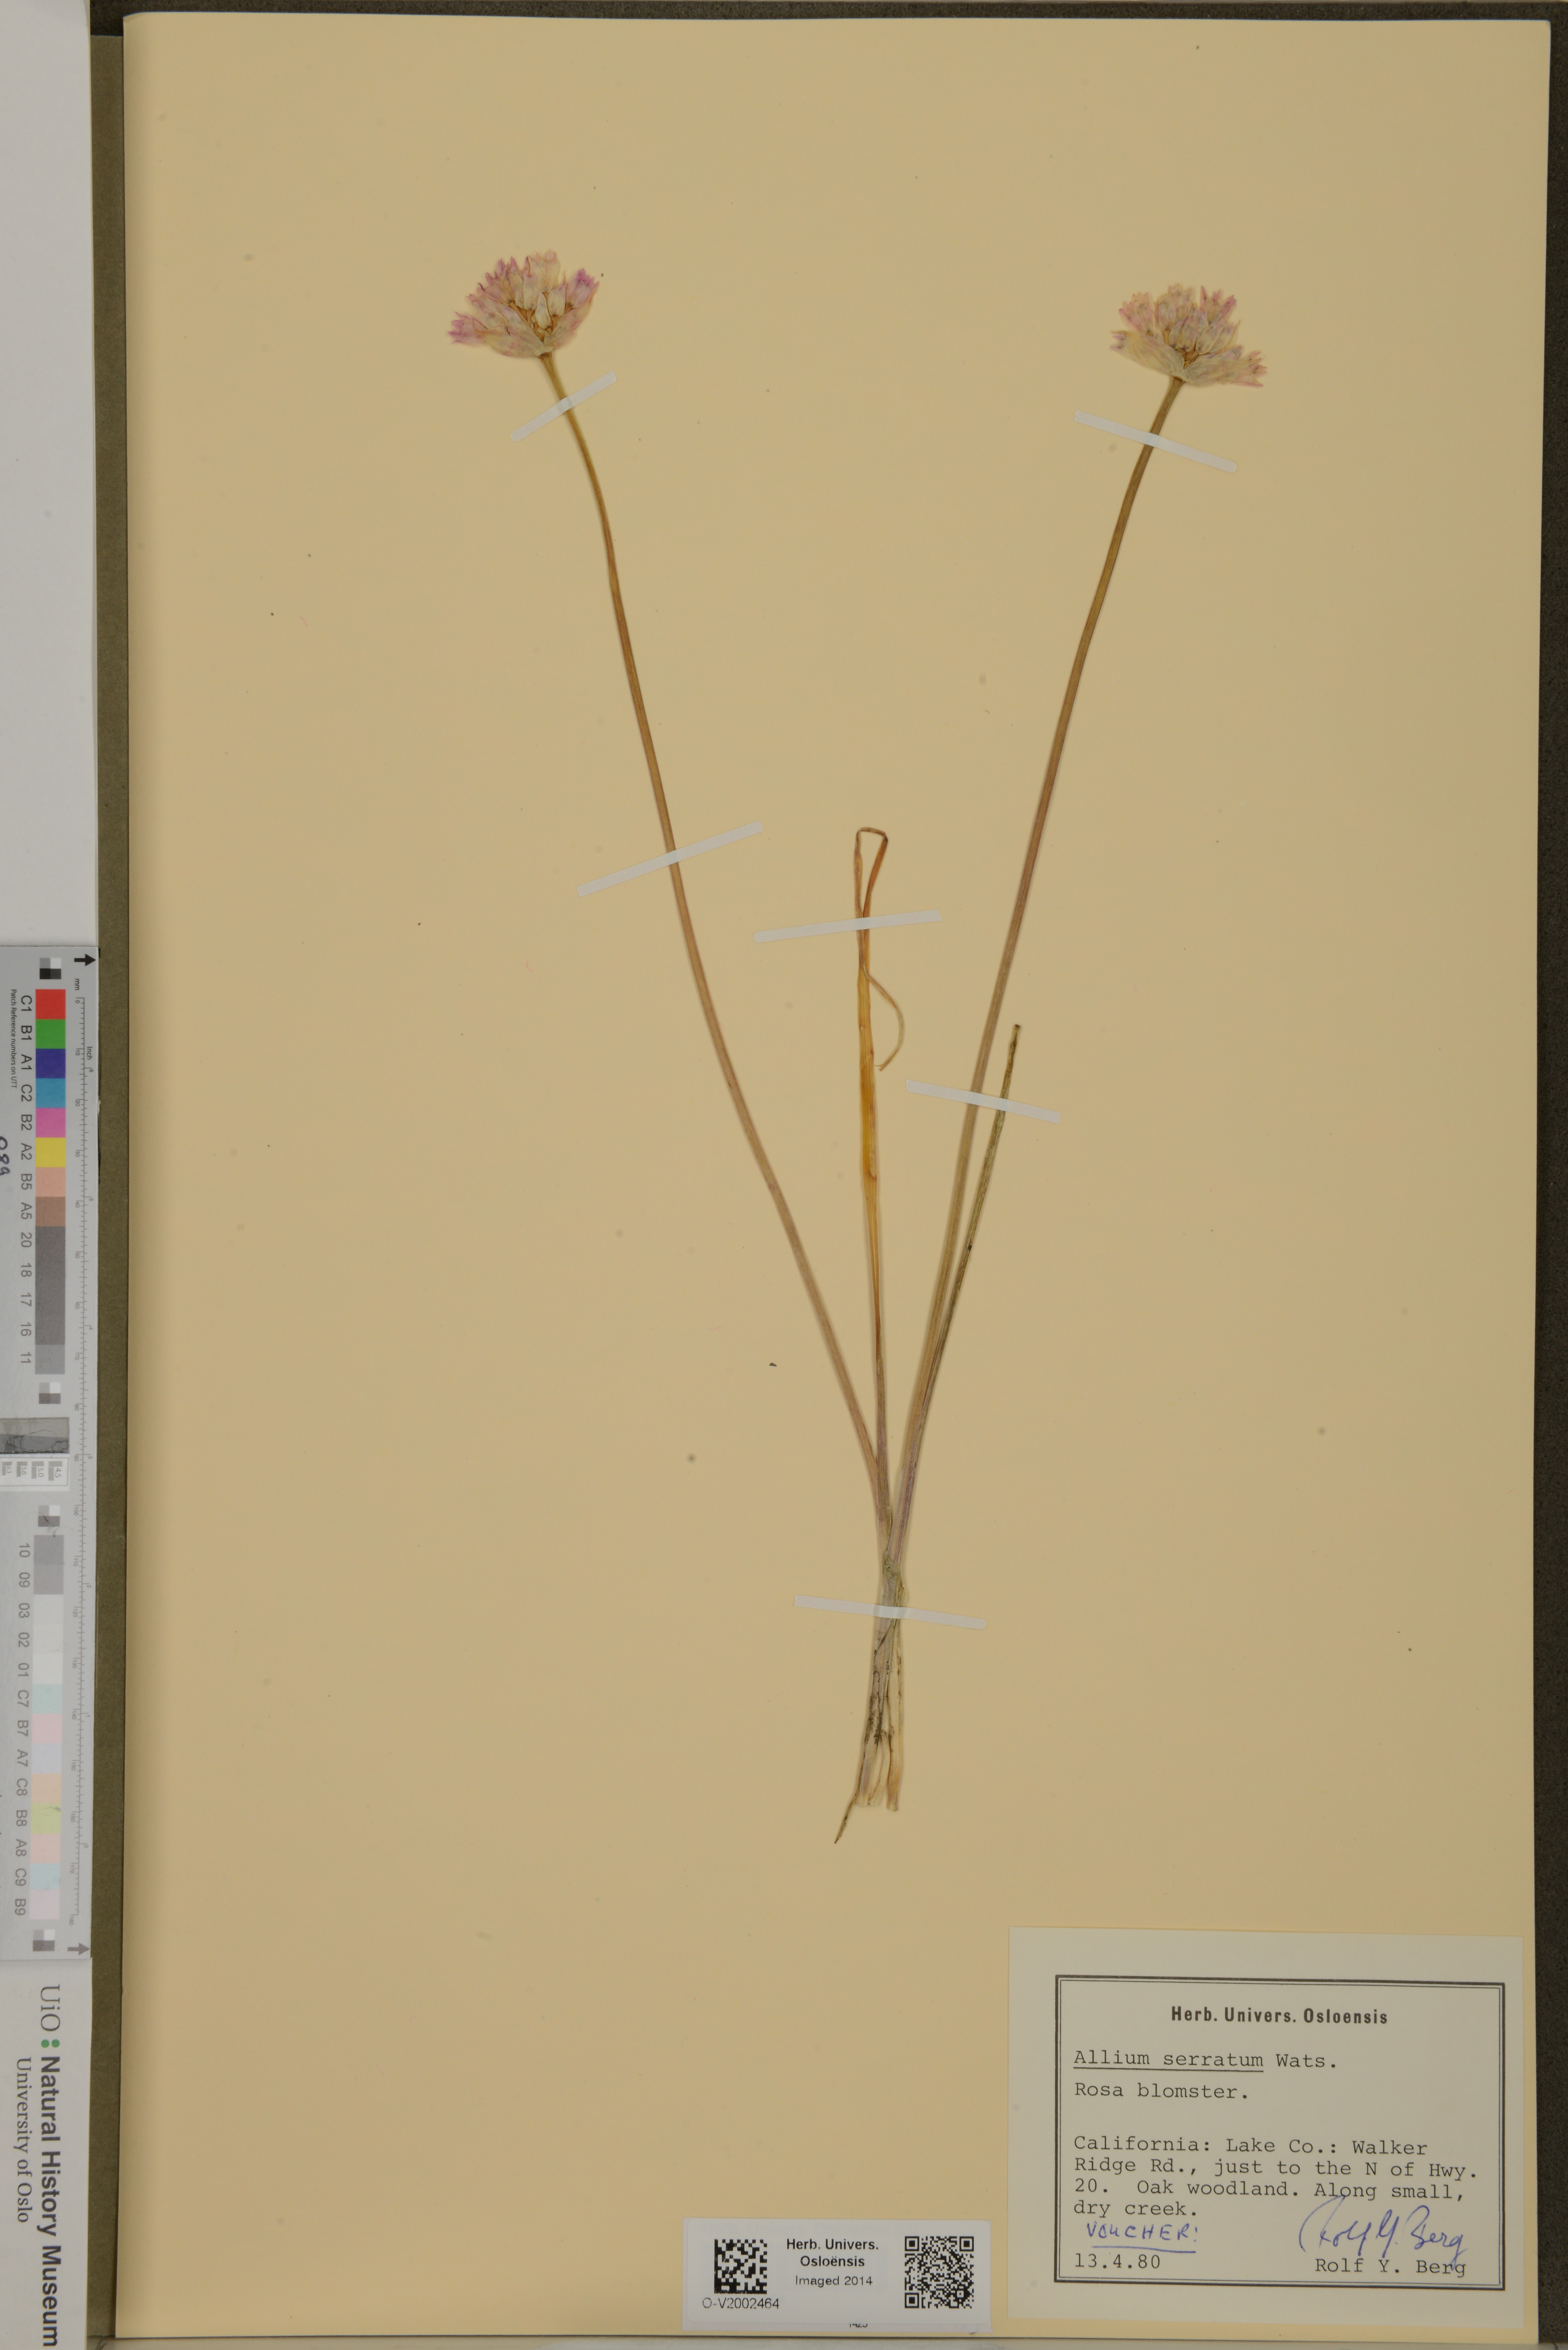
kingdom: Plantae
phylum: Tracheophyta
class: Liliopsida
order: Asparagales
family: Amaryllidaceae
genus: Allium
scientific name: Allium amplectens
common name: Narrow-leaved onion
